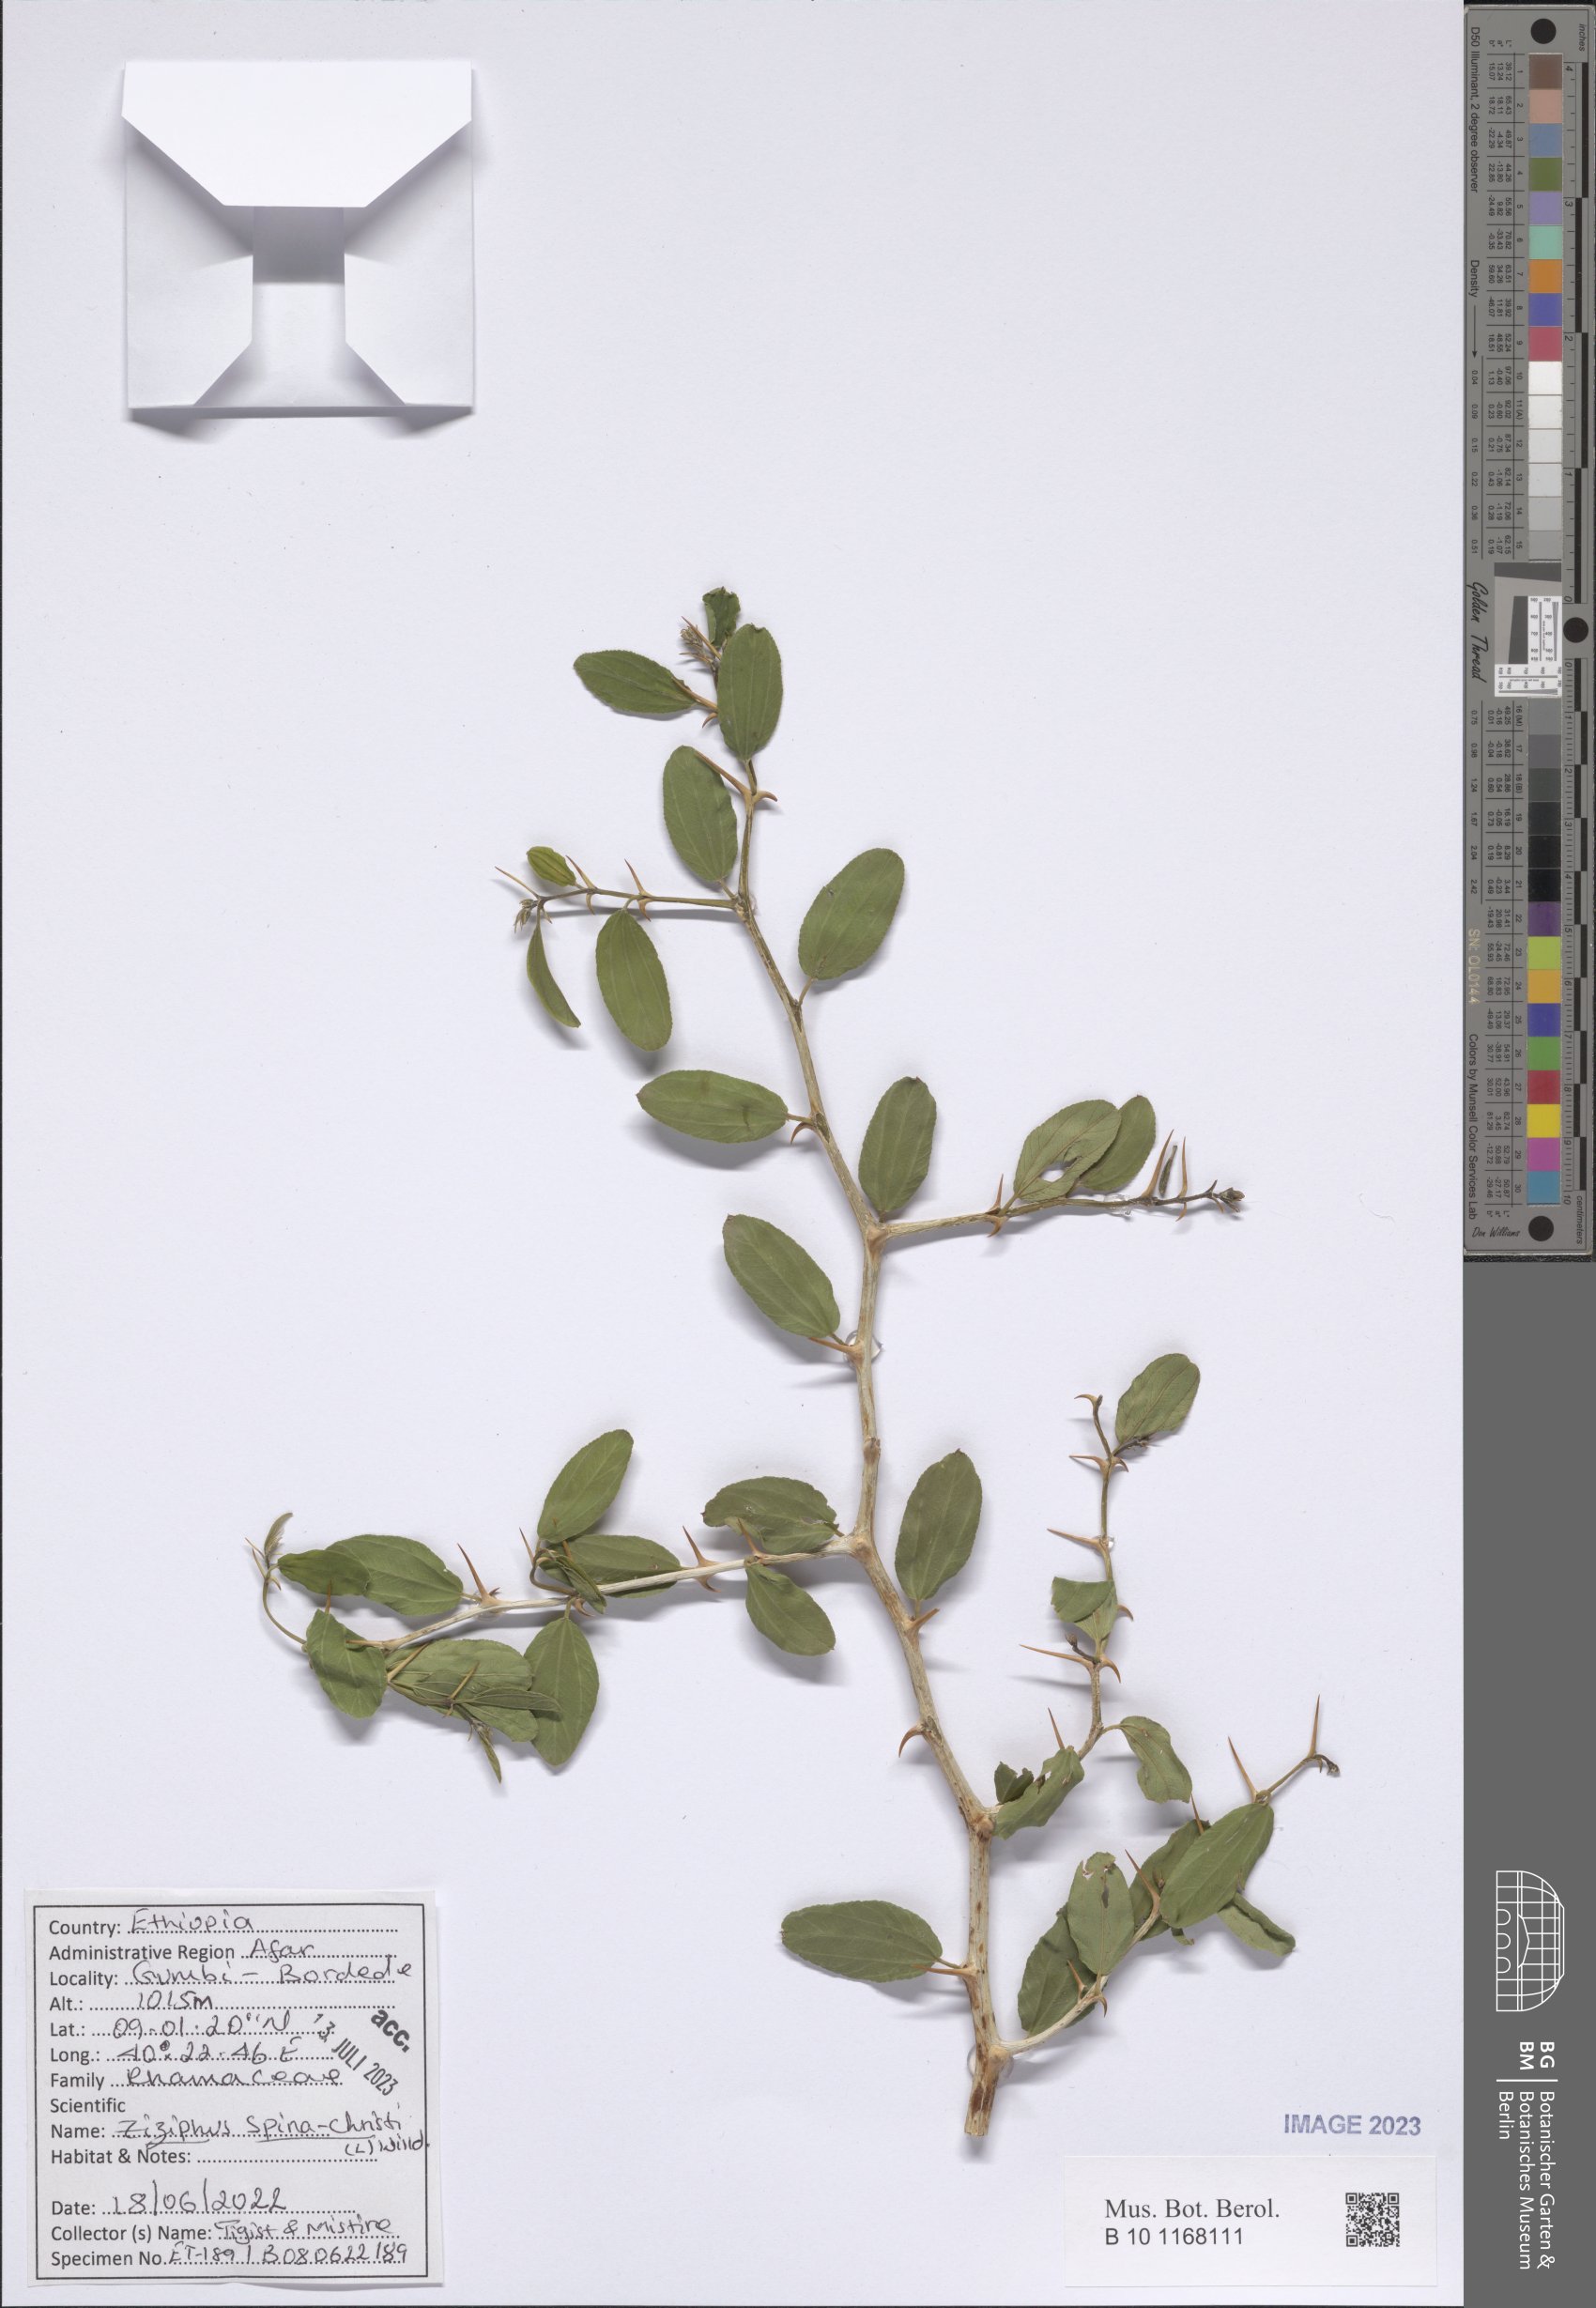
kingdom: Plantae
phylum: Tracheophyta
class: Magnoliopsida
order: Rosales
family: Rhamnaceae
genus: Ziziphus
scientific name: Ziziphus spina-christi
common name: Syrian christ-thorn
